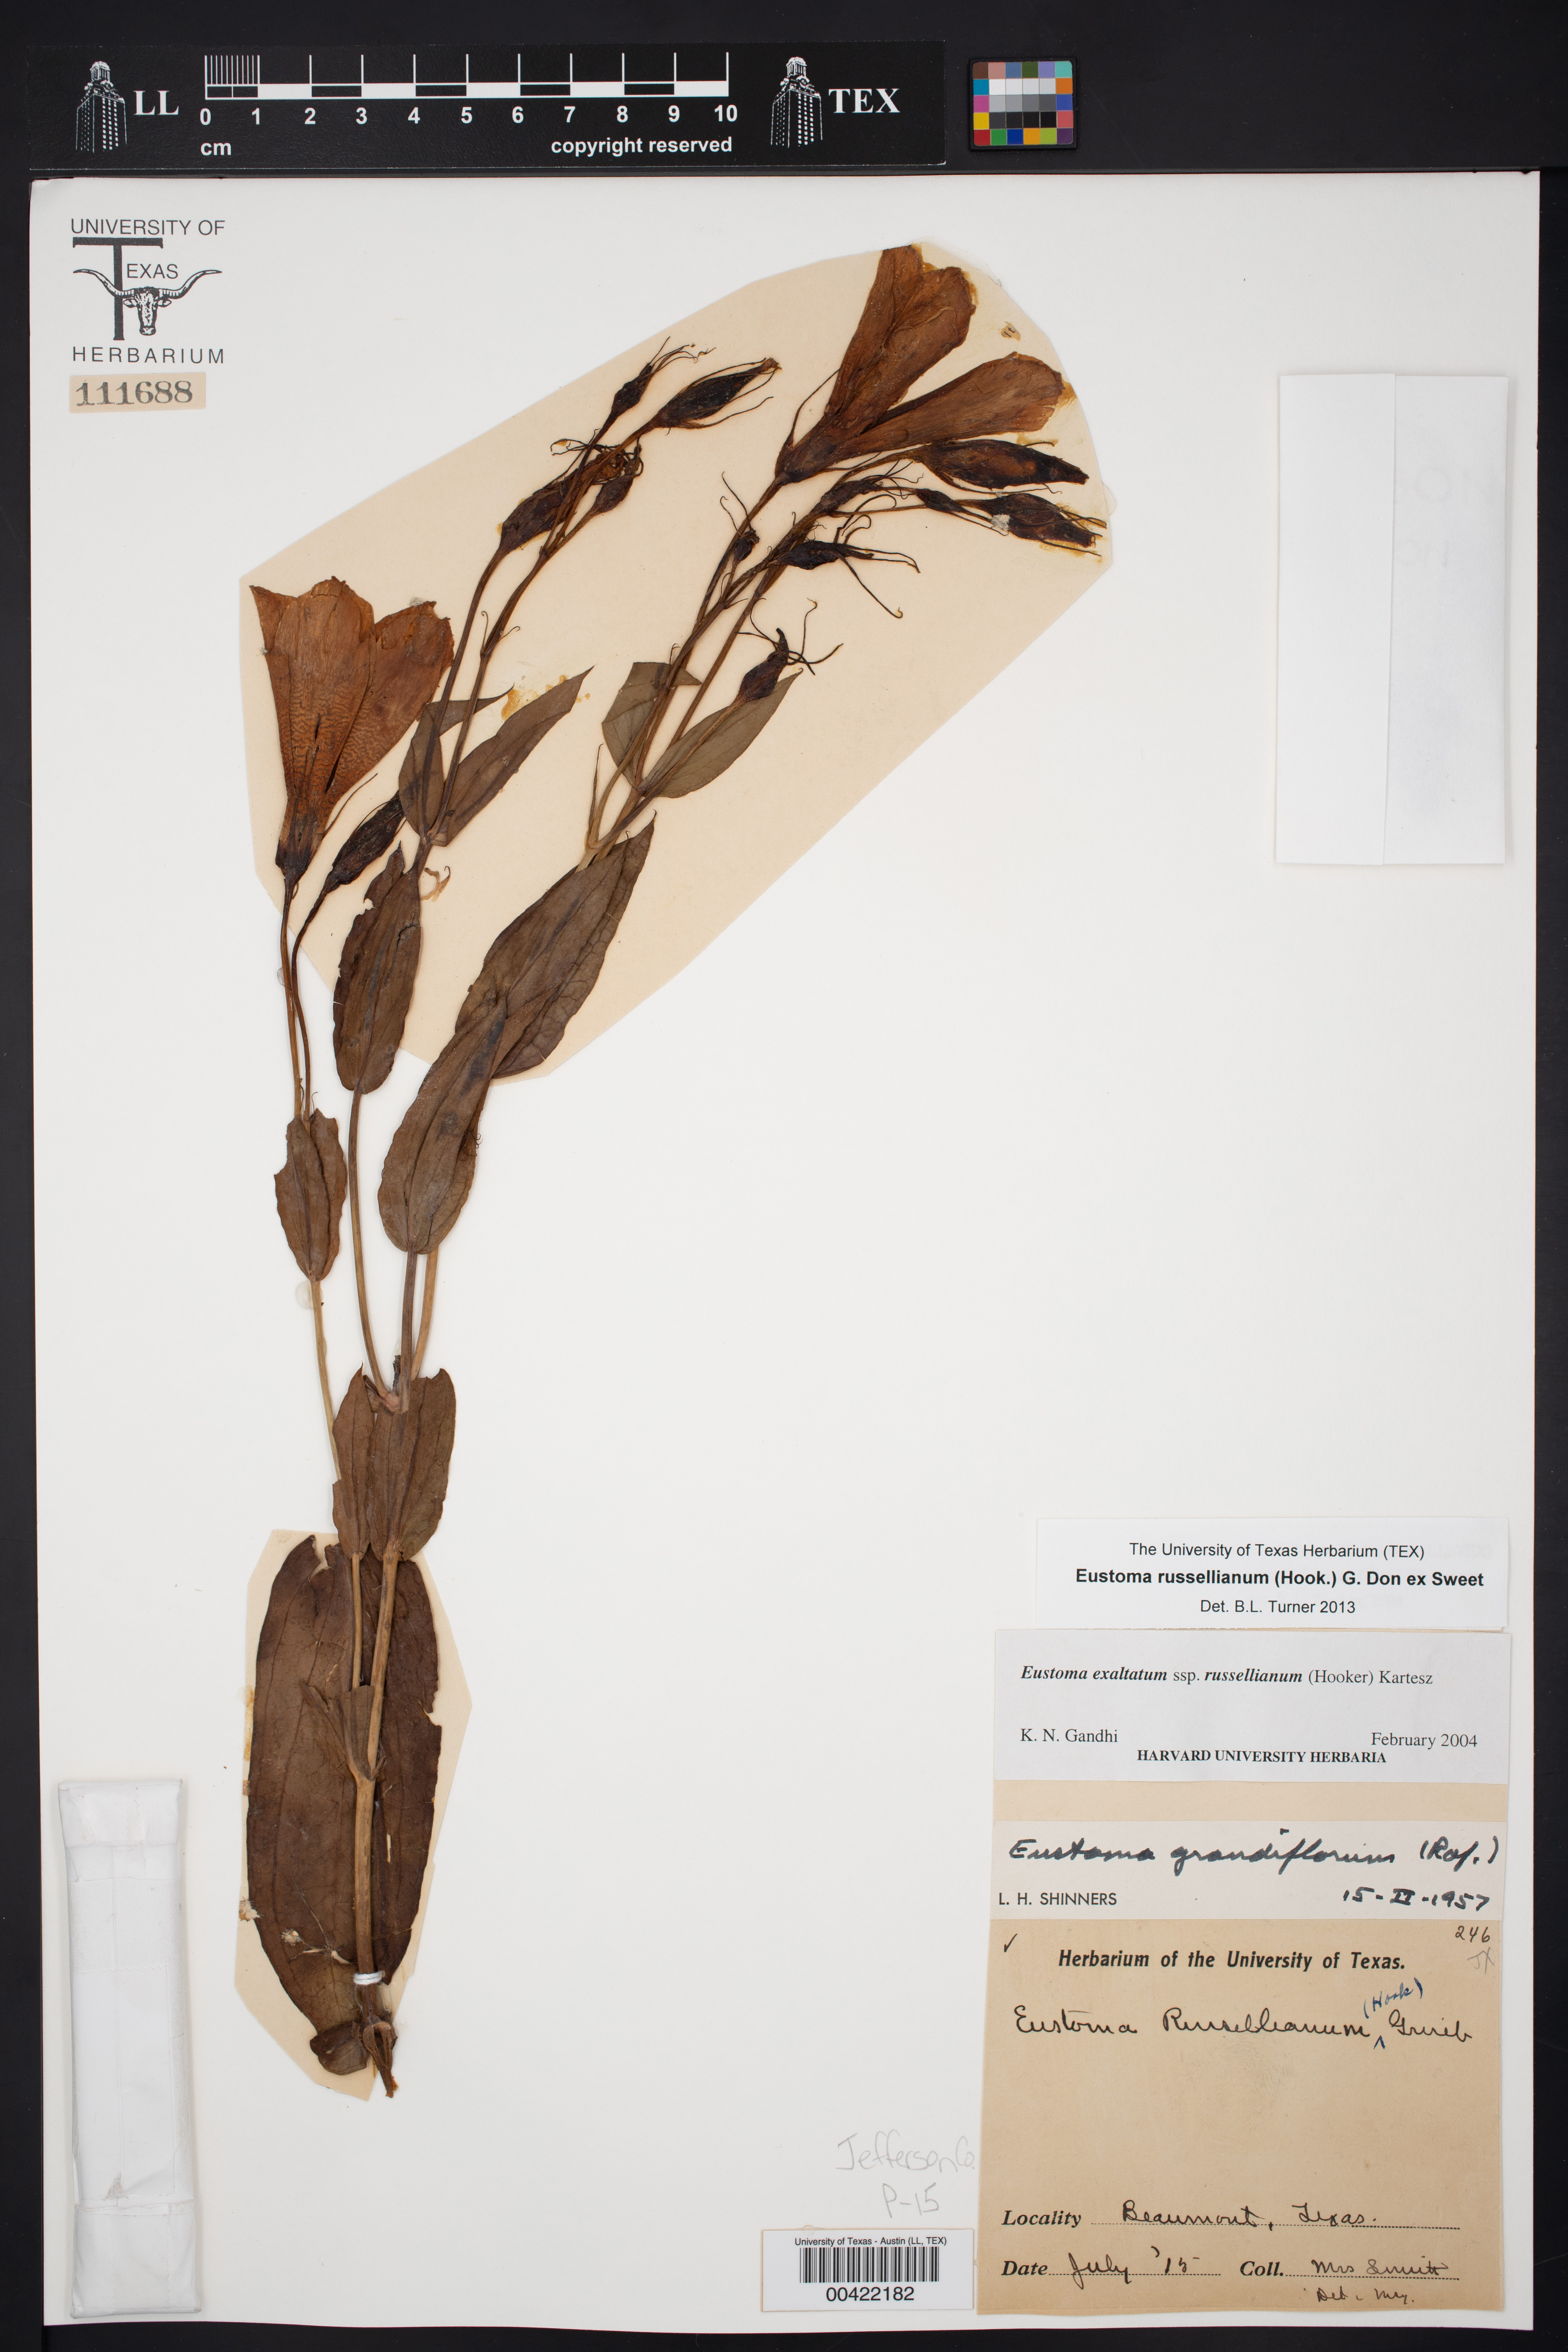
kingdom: Plantae
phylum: Tracheophyta
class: Magnoliopsida
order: Gentianales
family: Gentianaceae
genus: Eustoma
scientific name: Eustoma russellianum
